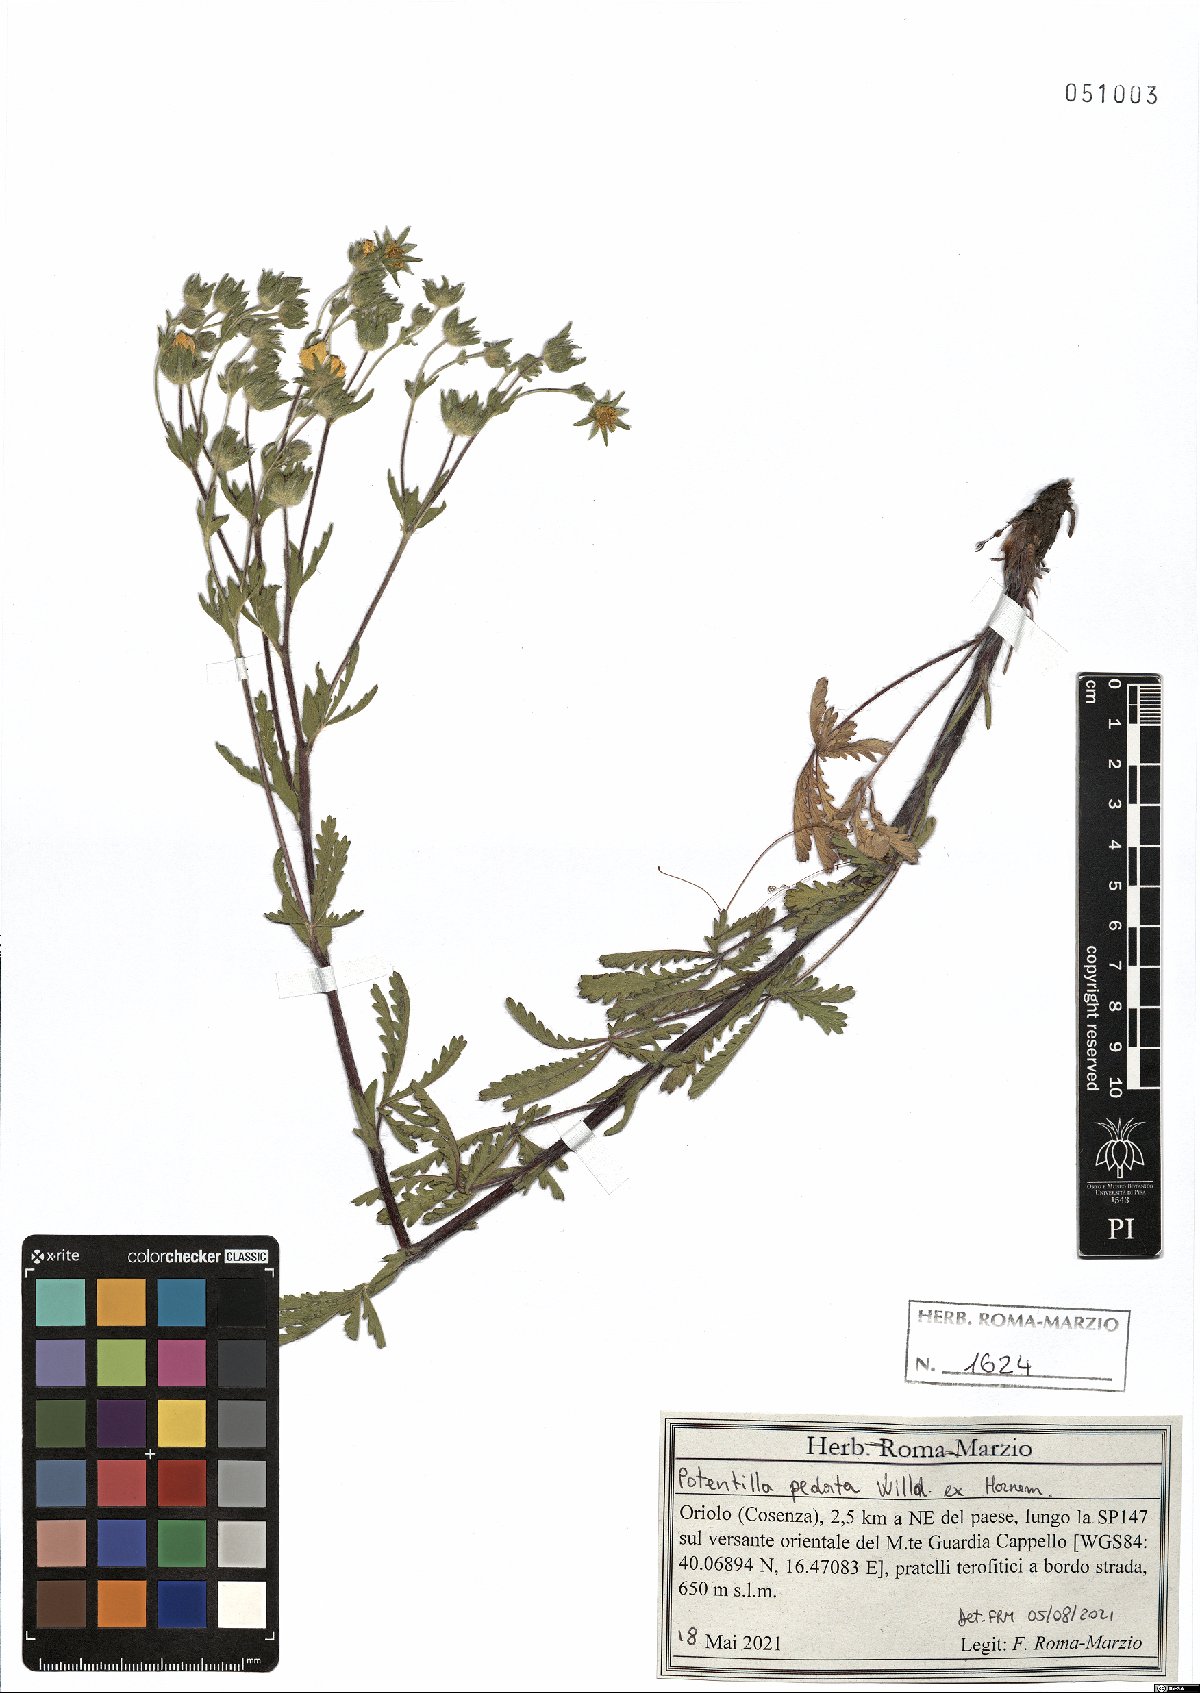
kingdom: Plantae
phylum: Tracheophyta
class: Magnoliopsida
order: Rosales
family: Rosaceae
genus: Potentilla
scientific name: Potentilla pedata
